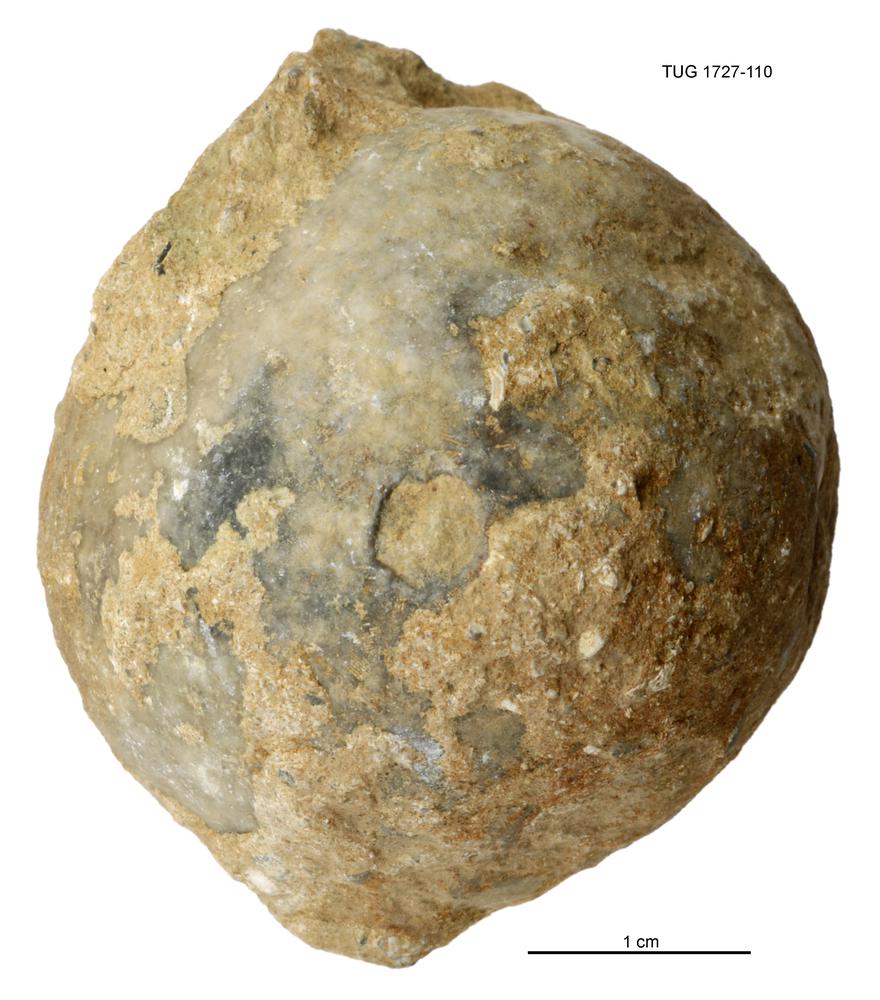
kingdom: Animalia
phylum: Echinodermata
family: Echinosphaeritidae
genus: Echinosphaerites
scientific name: Echinosphaerites Echinus aurantium
